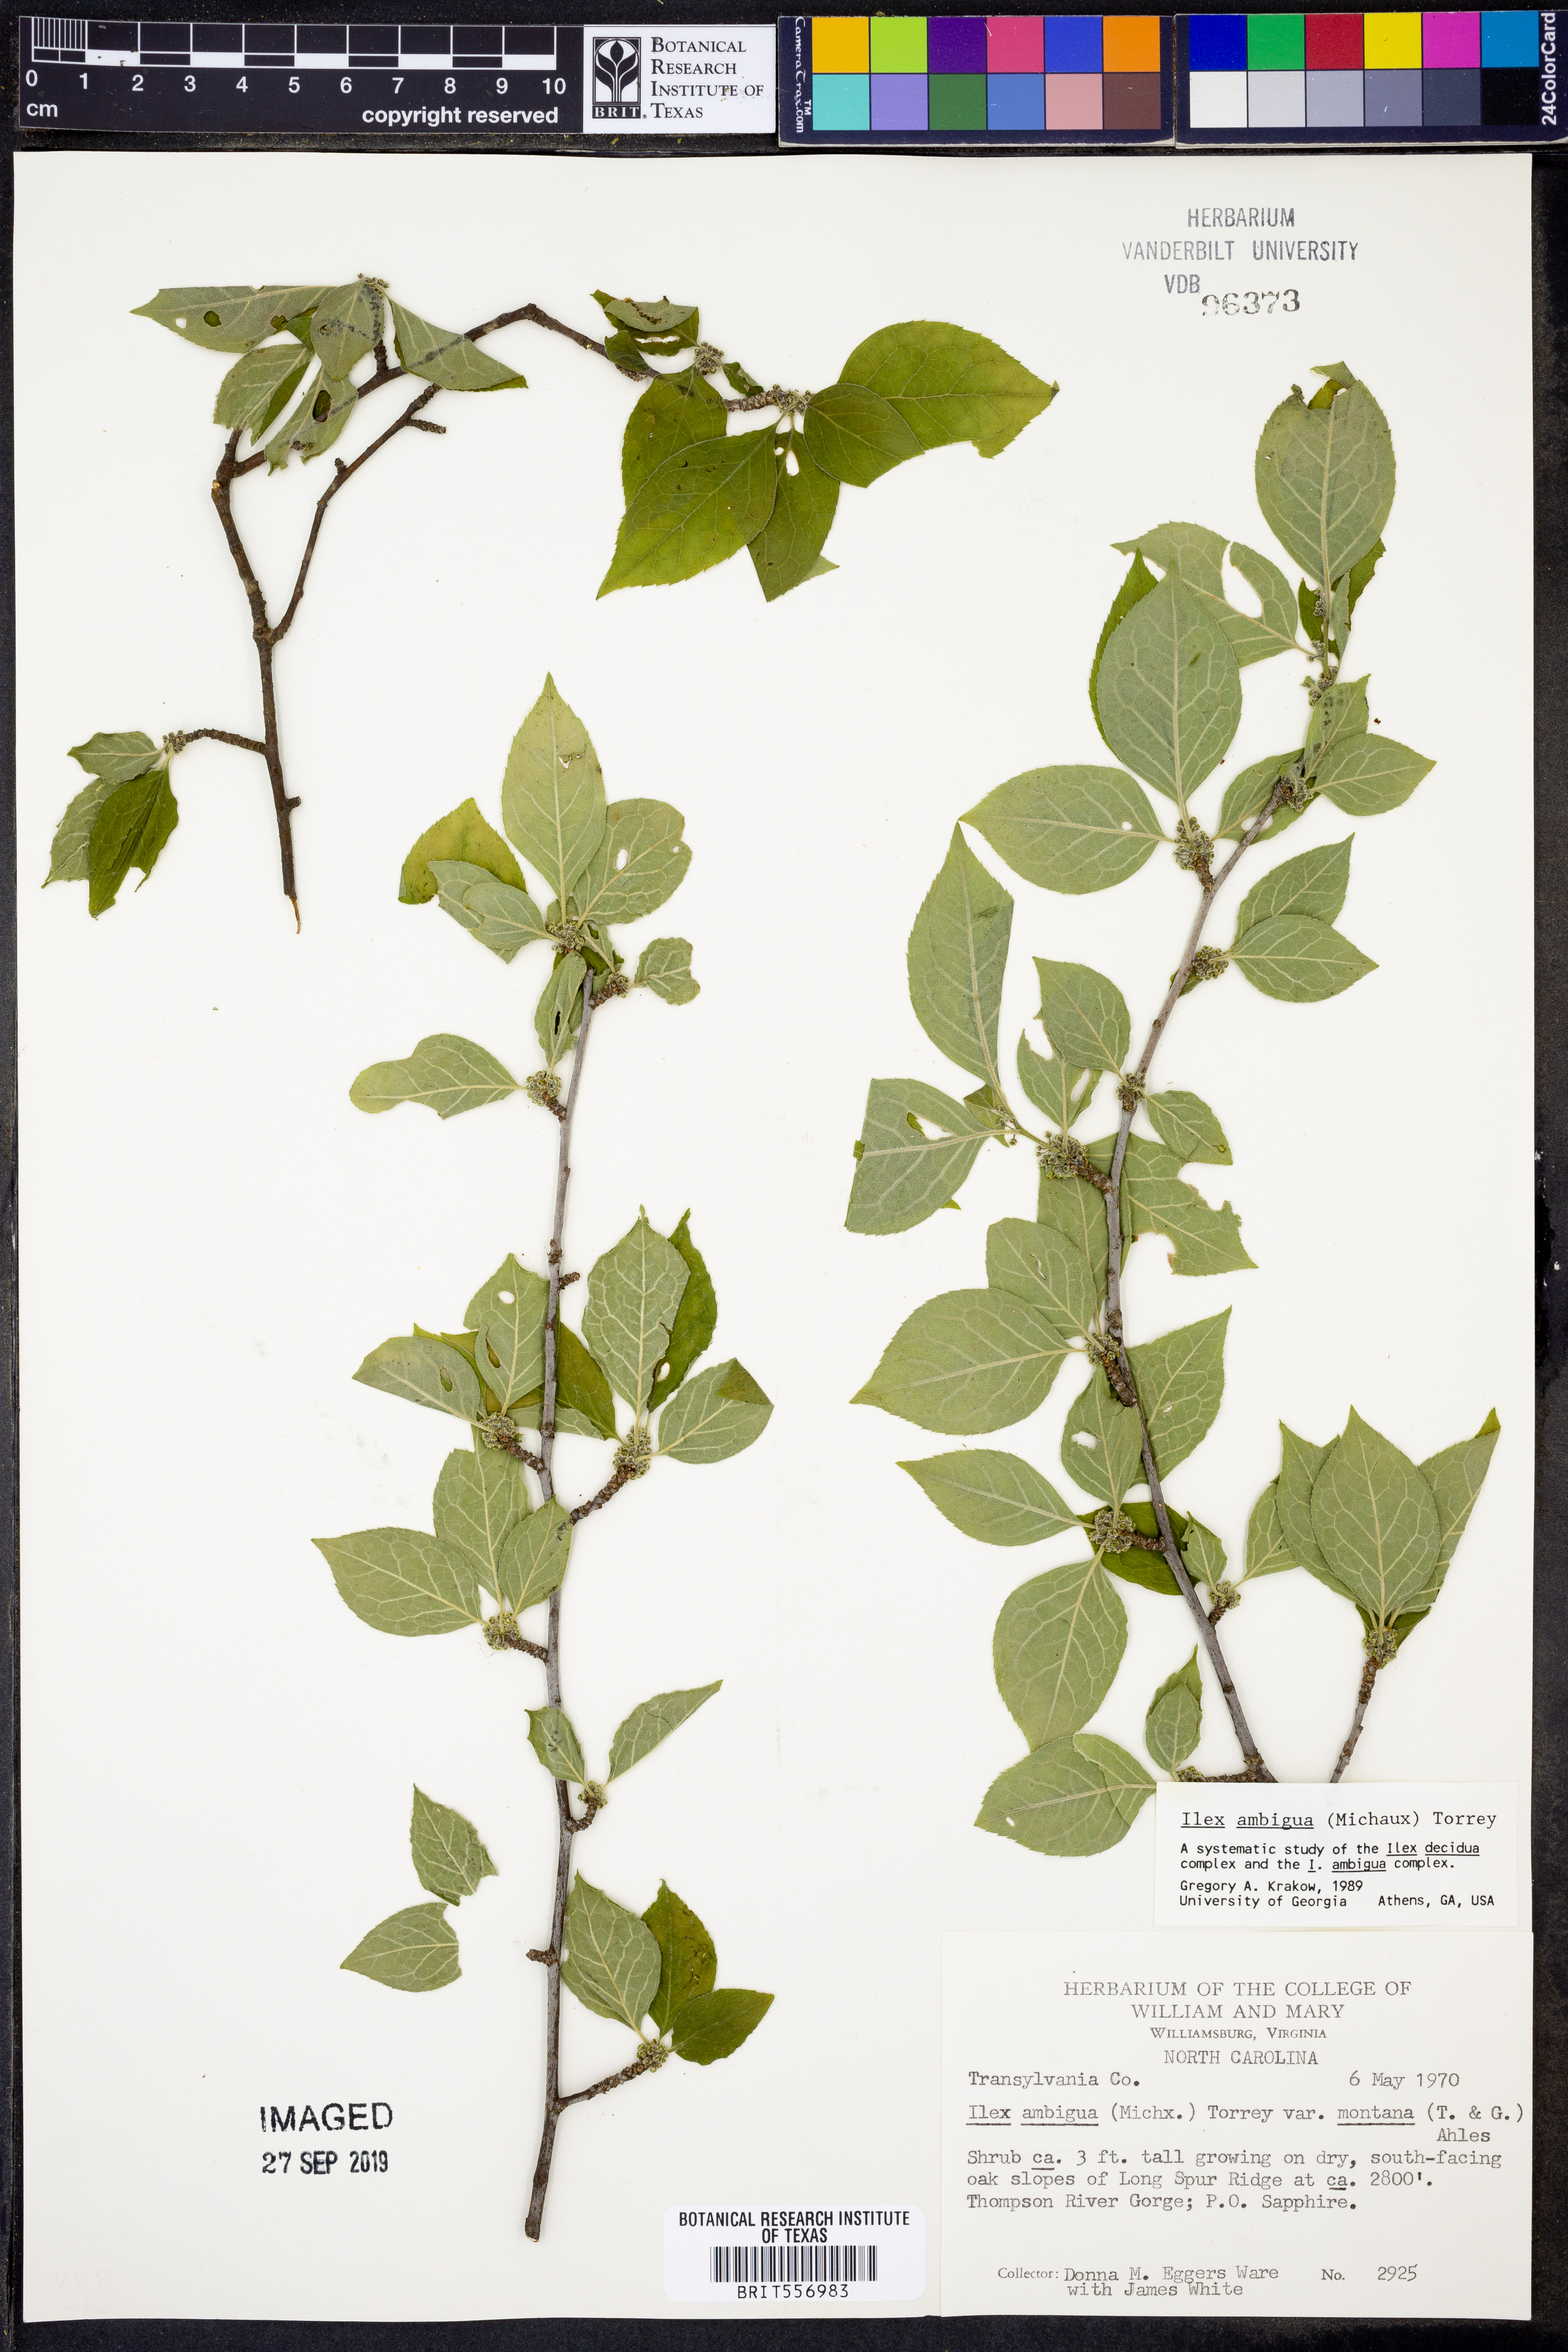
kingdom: Plantae
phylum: Tracheophyta
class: Magnoliopsida
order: Aquifoliales
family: Aquifoliaceae
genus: Ilex
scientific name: Ilex ambigua
